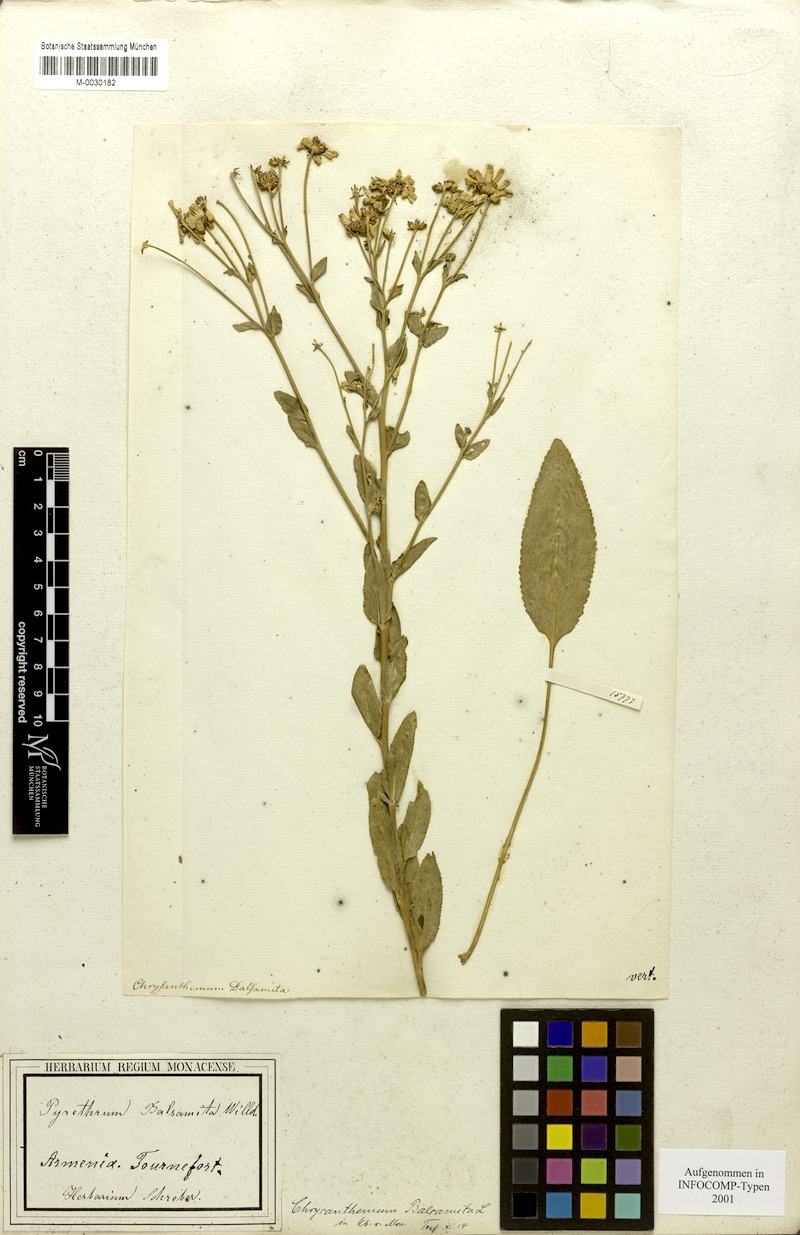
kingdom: Plantae
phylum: Tracheophyta
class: Magnoliopsida
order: Asterales
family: Asteraceae
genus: Tanacetum
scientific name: Tanacetum balsamita
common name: Costmary
